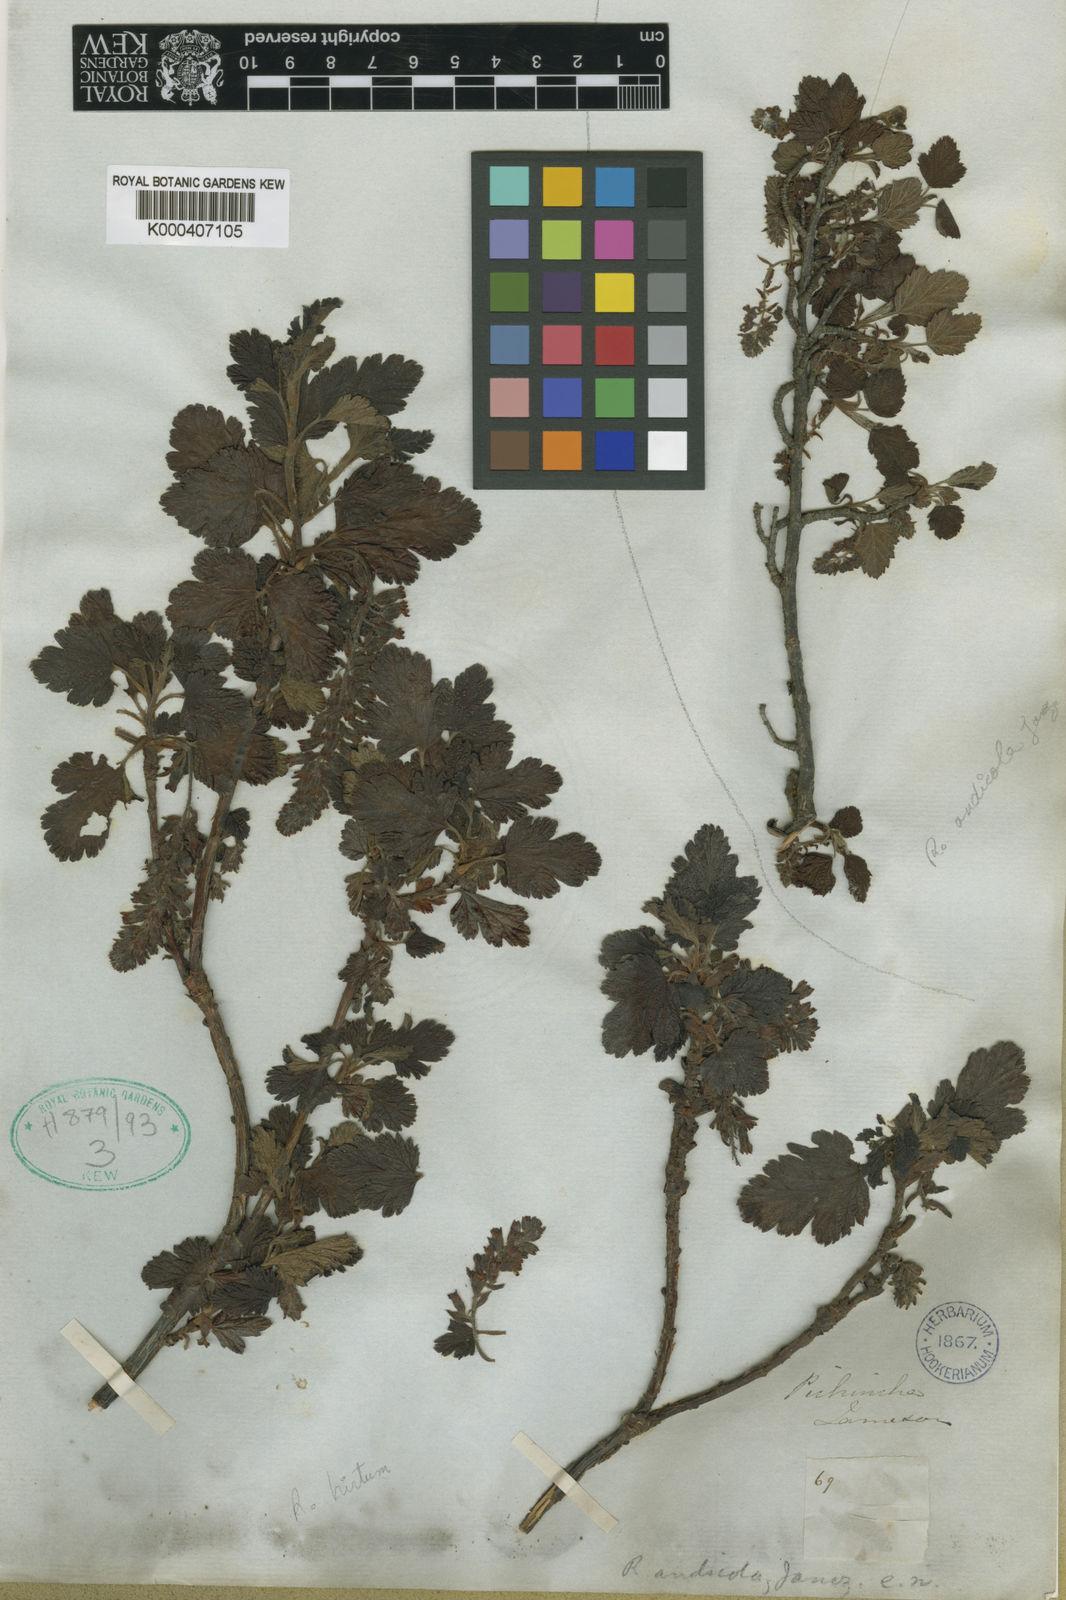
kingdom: Plantae
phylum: Tracheophyta
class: Magnoliopsida
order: Saxifragales
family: Grossulariaceae
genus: Ribes
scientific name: Ribes andicola
